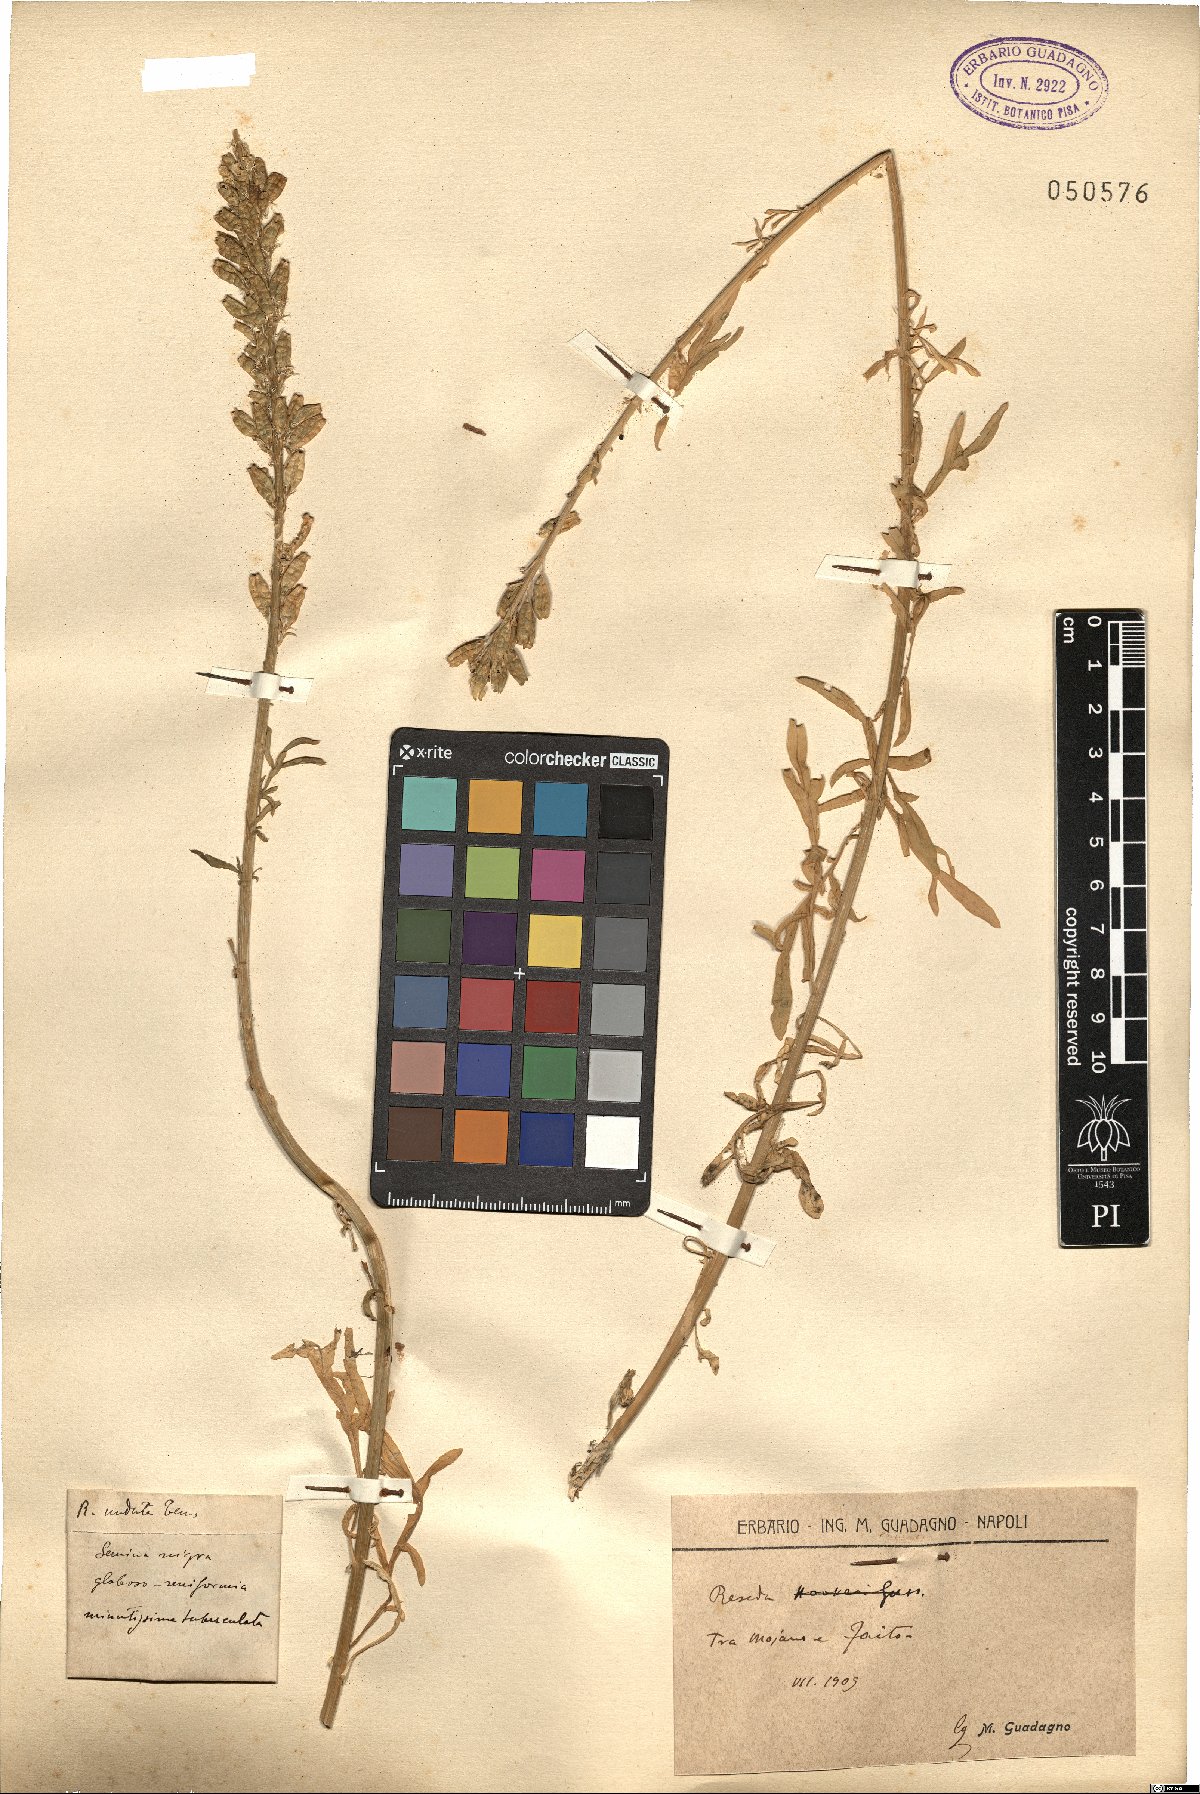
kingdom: Plantae
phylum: Tracheophyta
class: Magnoliopsida
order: Brassicales
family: Resedaceae
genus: Reseda
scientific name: Reseda undata
